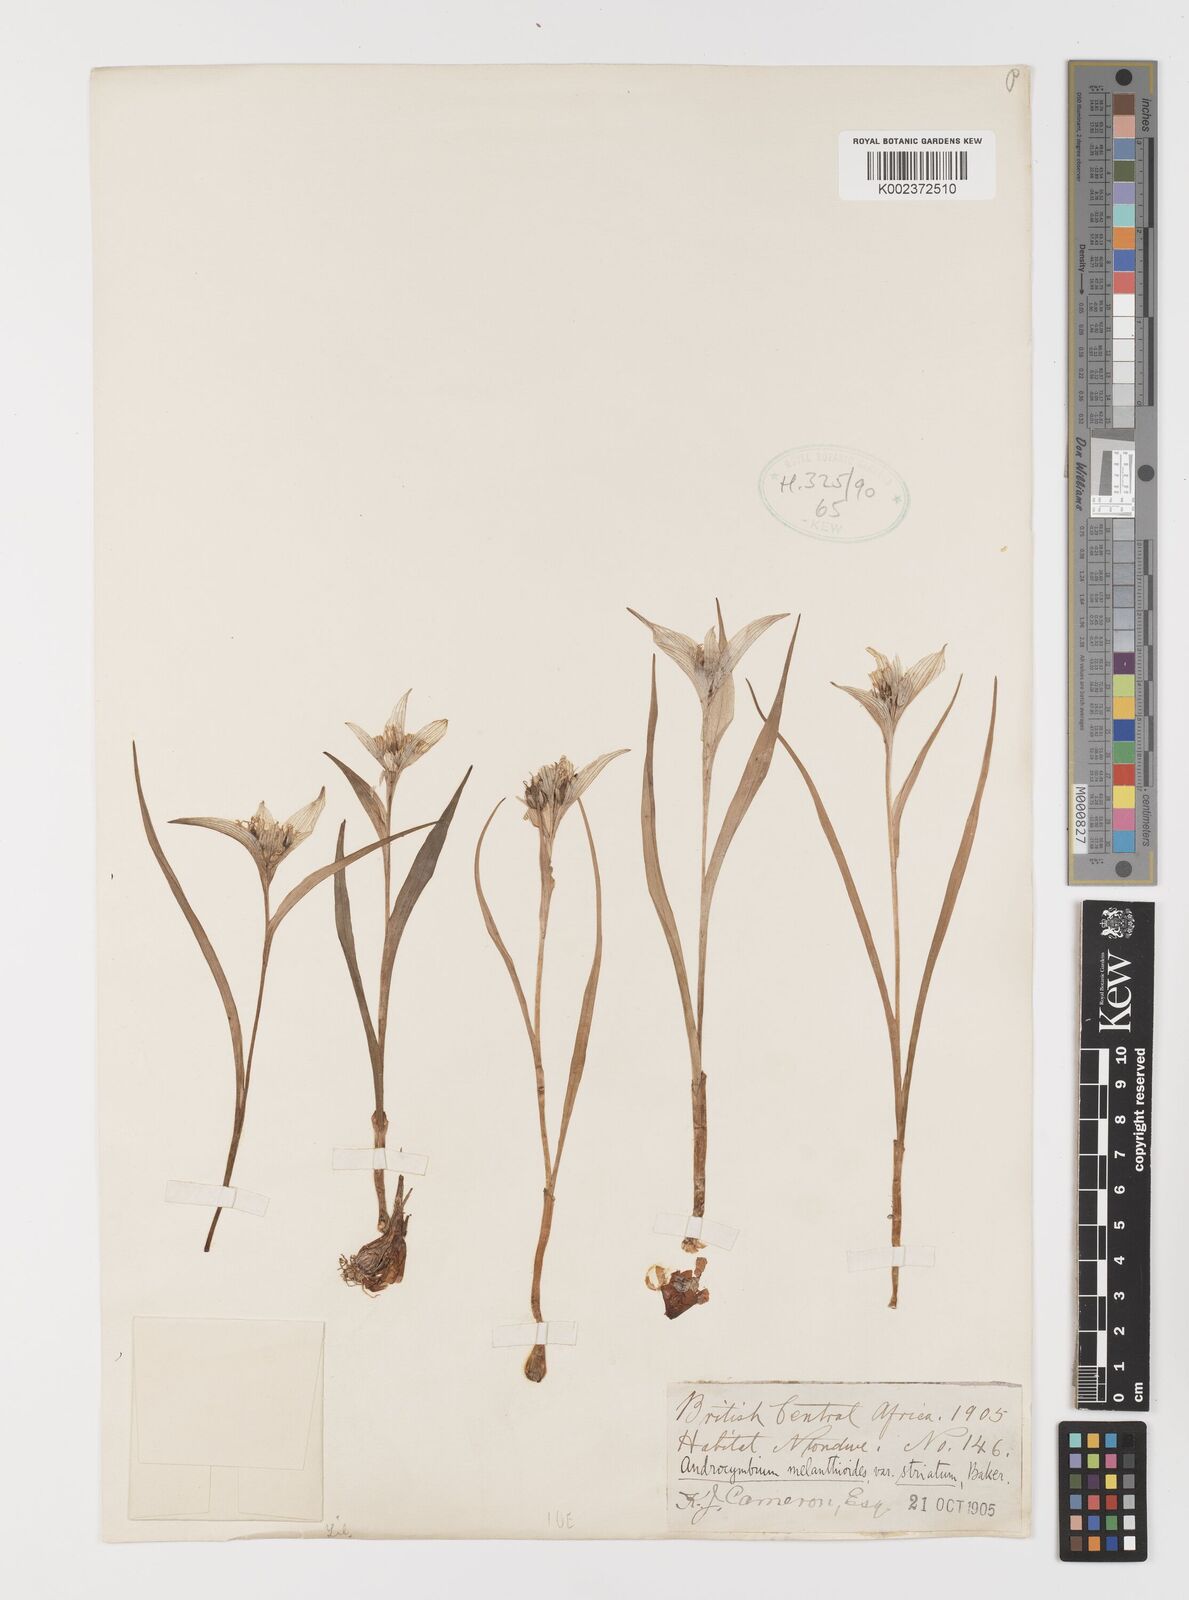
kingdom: Plantae
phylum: Tracheophyta
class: Liliopsida
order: Liliales
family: Colchicaceae
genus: Colchicum
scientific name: Colchicum melanthioides
